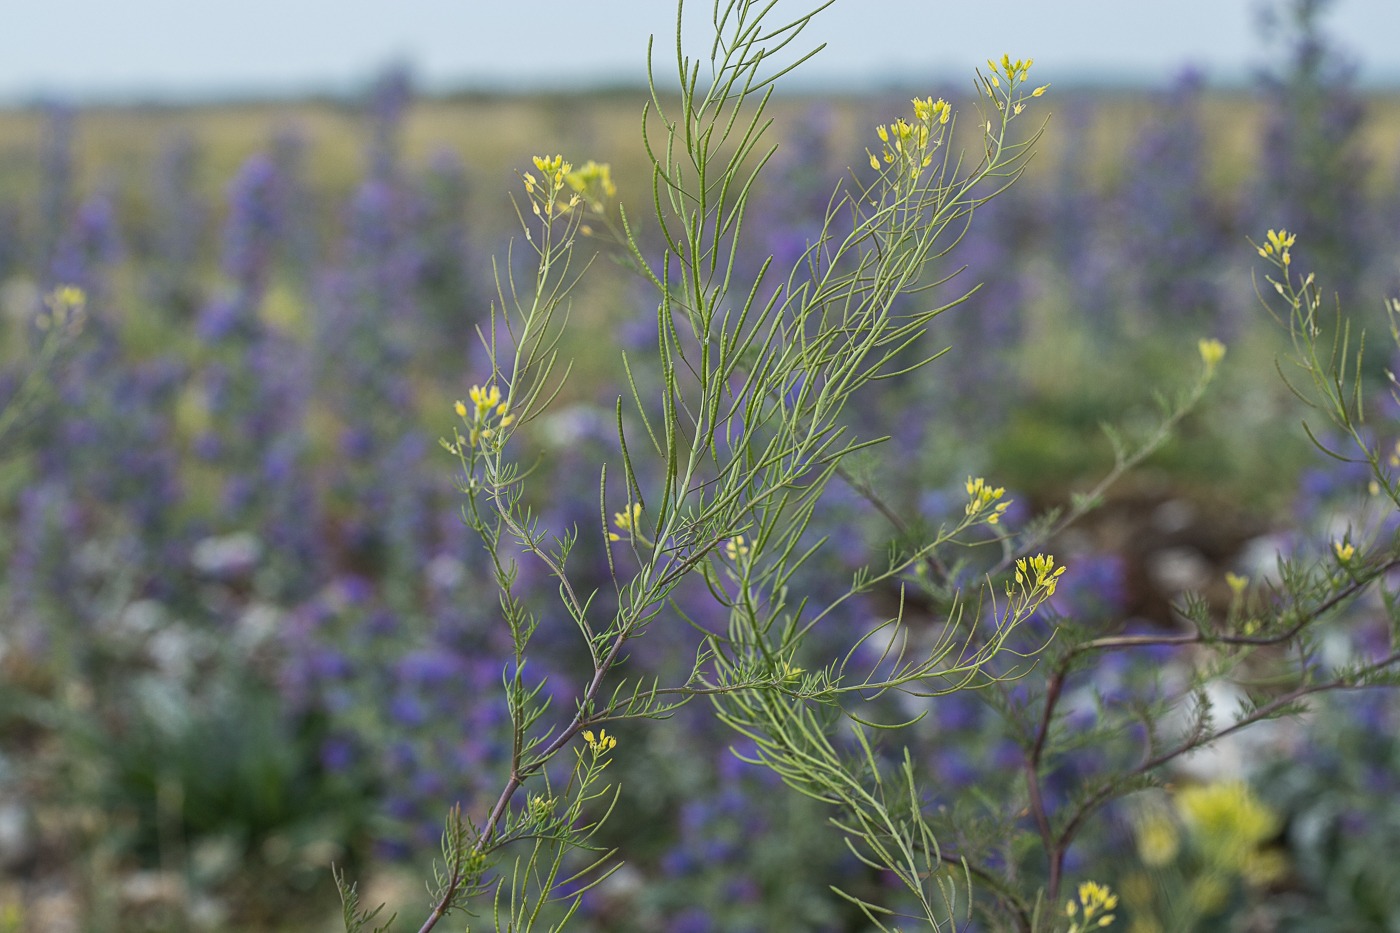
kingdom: Plantae
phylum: Tracheophyta
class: Magnoliopsida
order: Brassicales
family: Brassicaceae
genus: Descurainia
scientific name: Descurainia sophia
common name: Finbladet vejsennep
